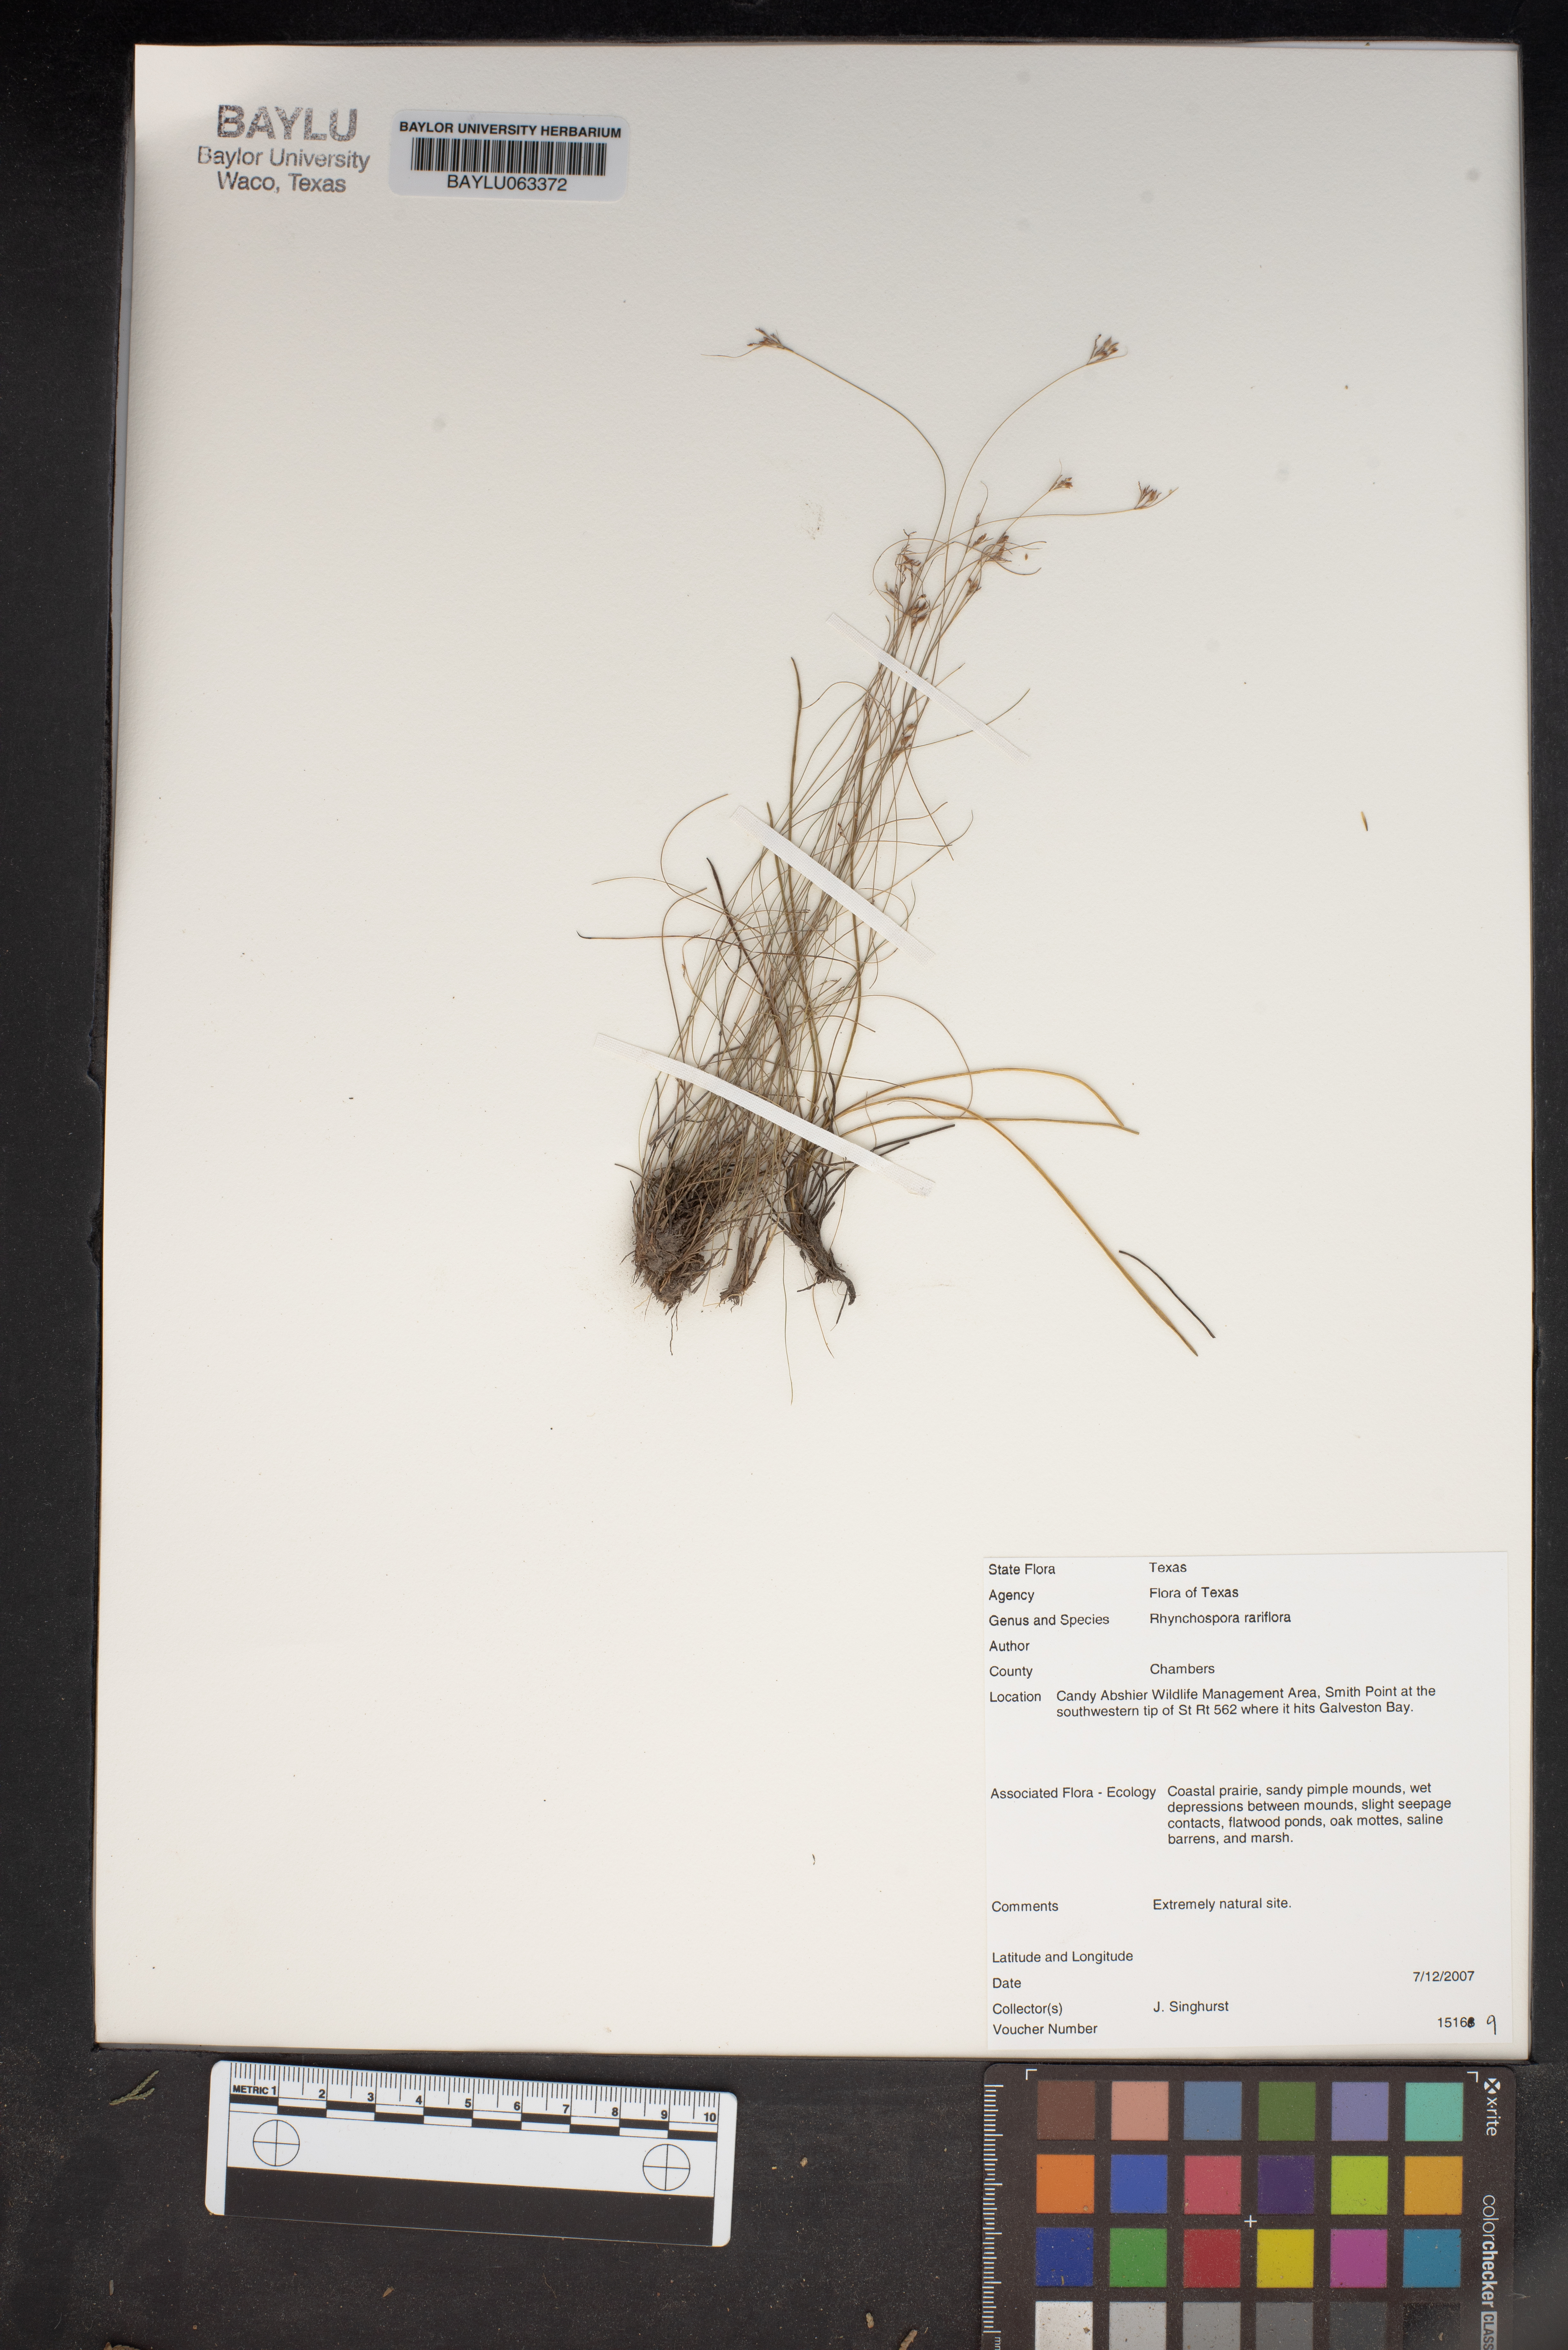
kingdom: Plantae
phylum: Tracheophyta
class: Liliopsida
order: Poales
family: Cyperaceae
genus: Rhynchospora
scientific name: Rhynchospora rariflora
